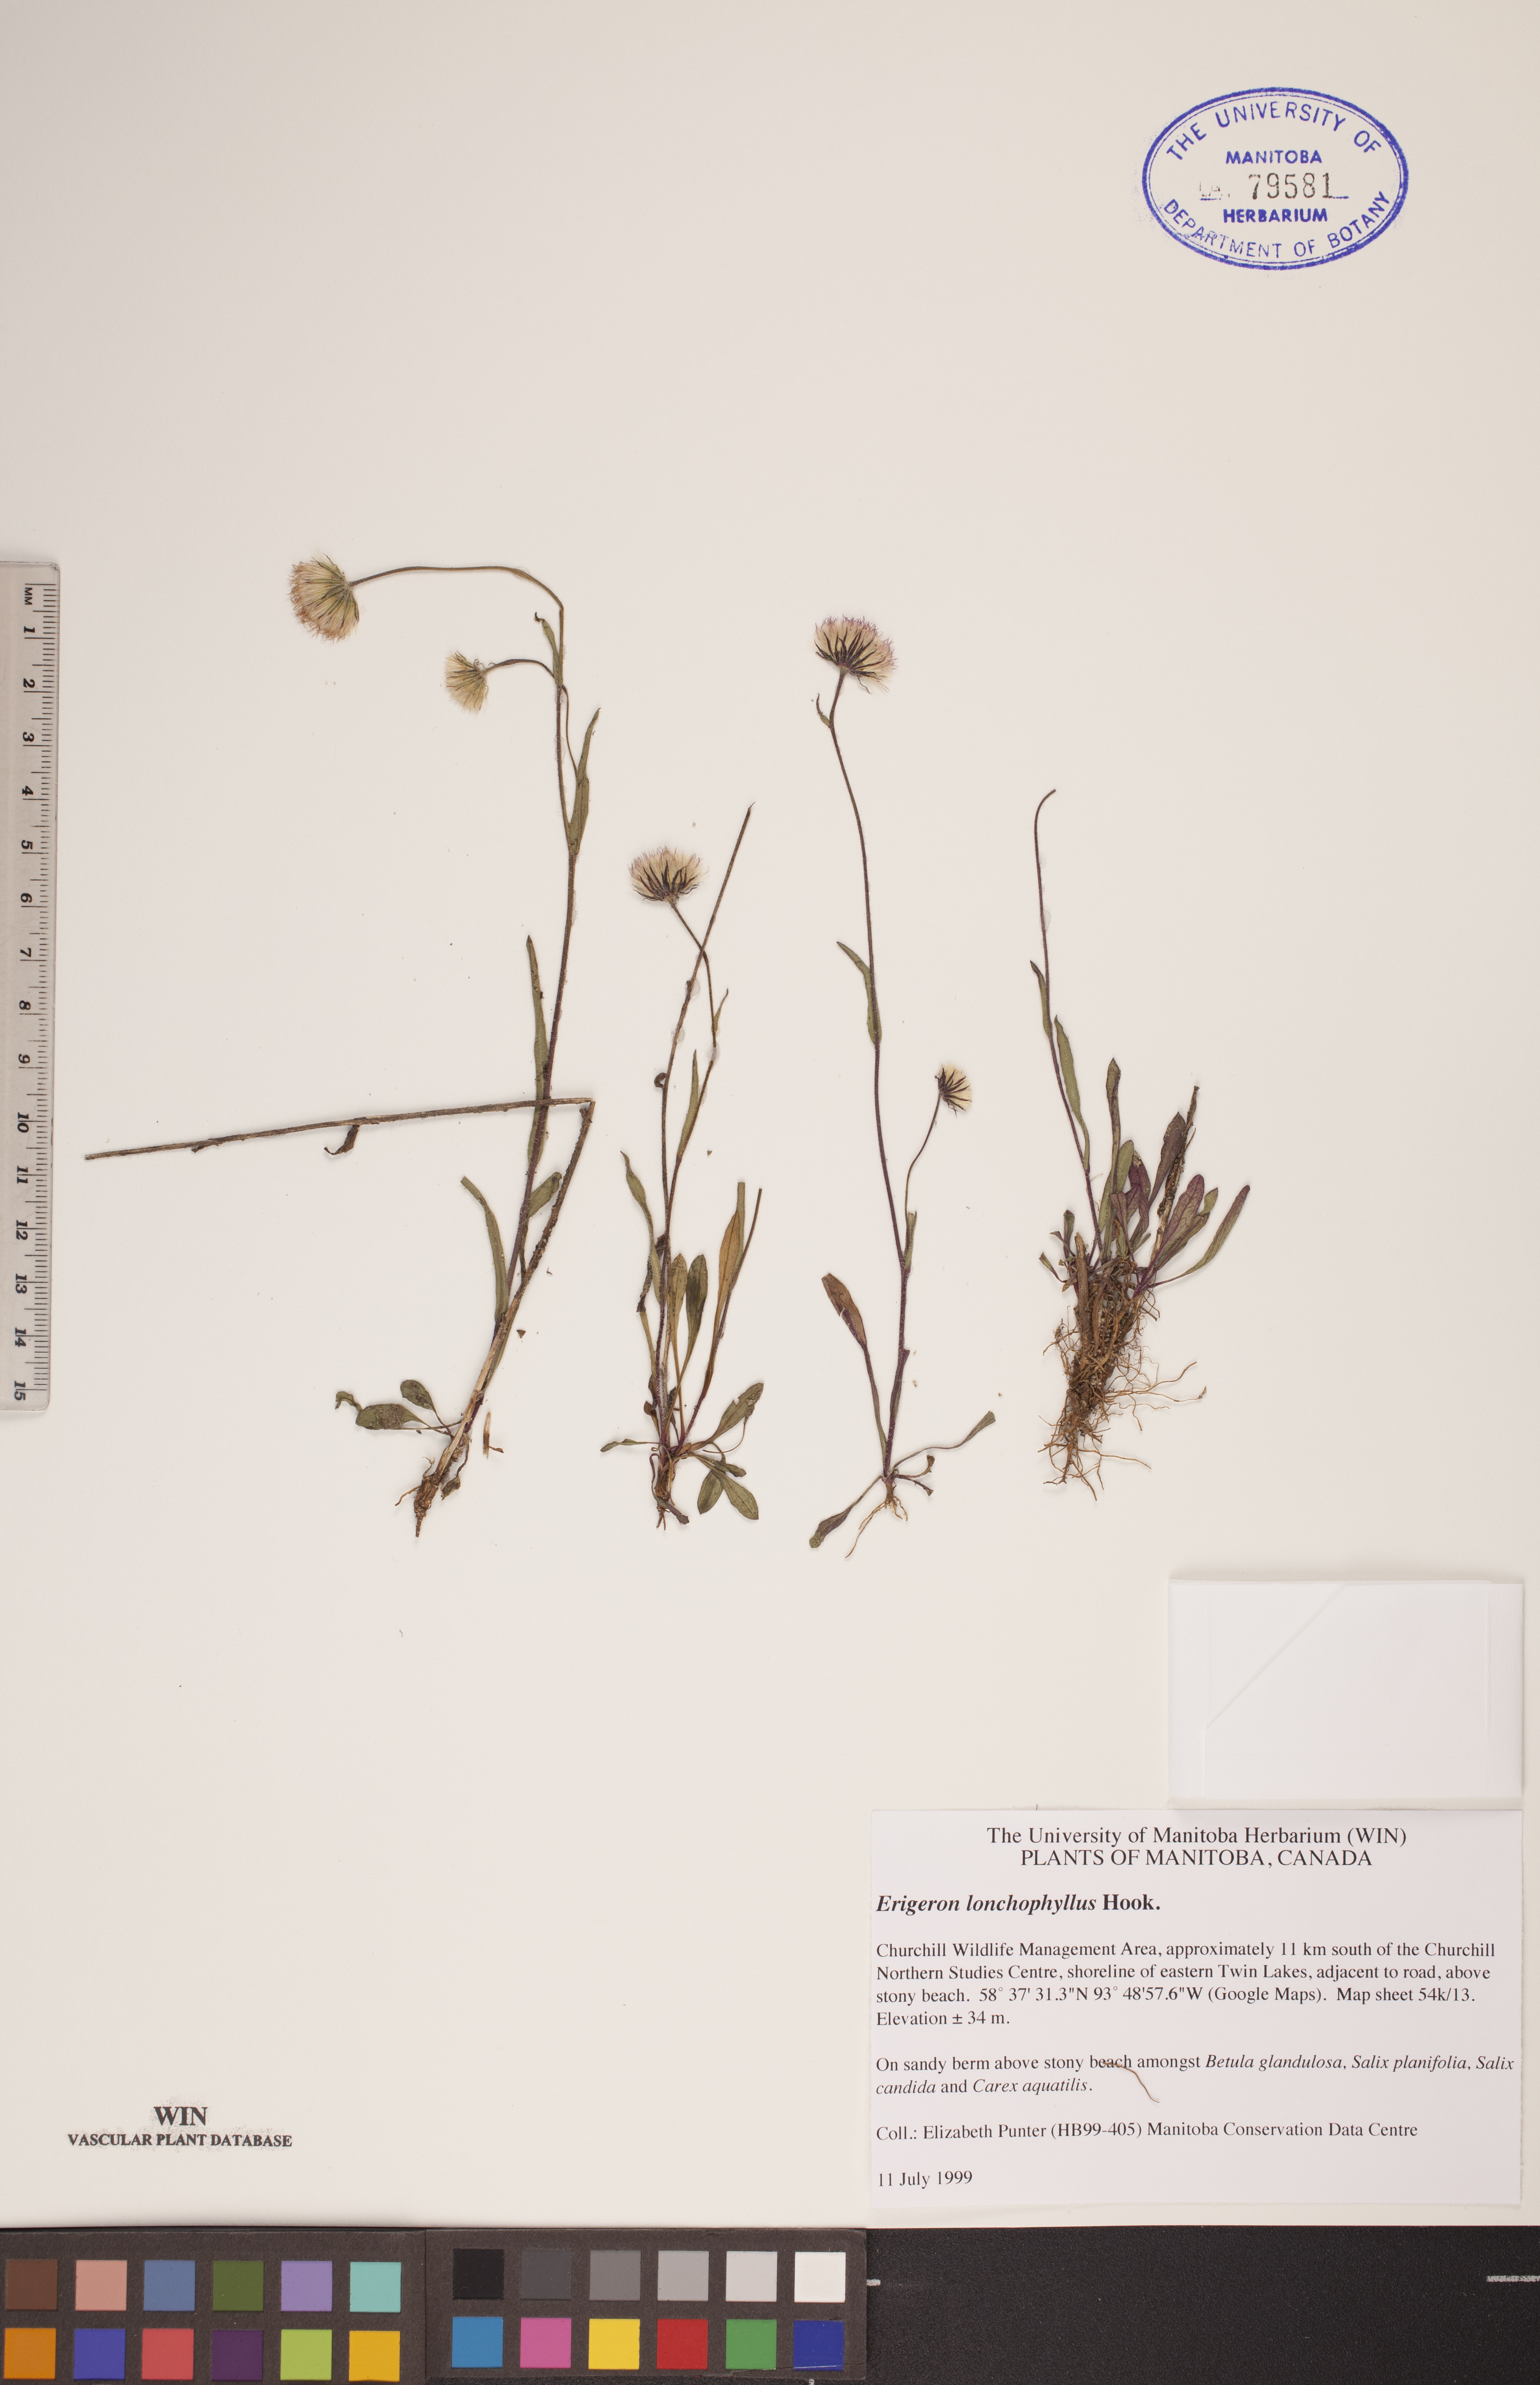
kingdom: Plantae
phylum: Tracheophyta
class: Magnoliopsida
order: Asterales
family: Asteraceae
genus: Erigeron
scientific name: Erigeron lonchophyllus
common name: Short-ray fleabane
